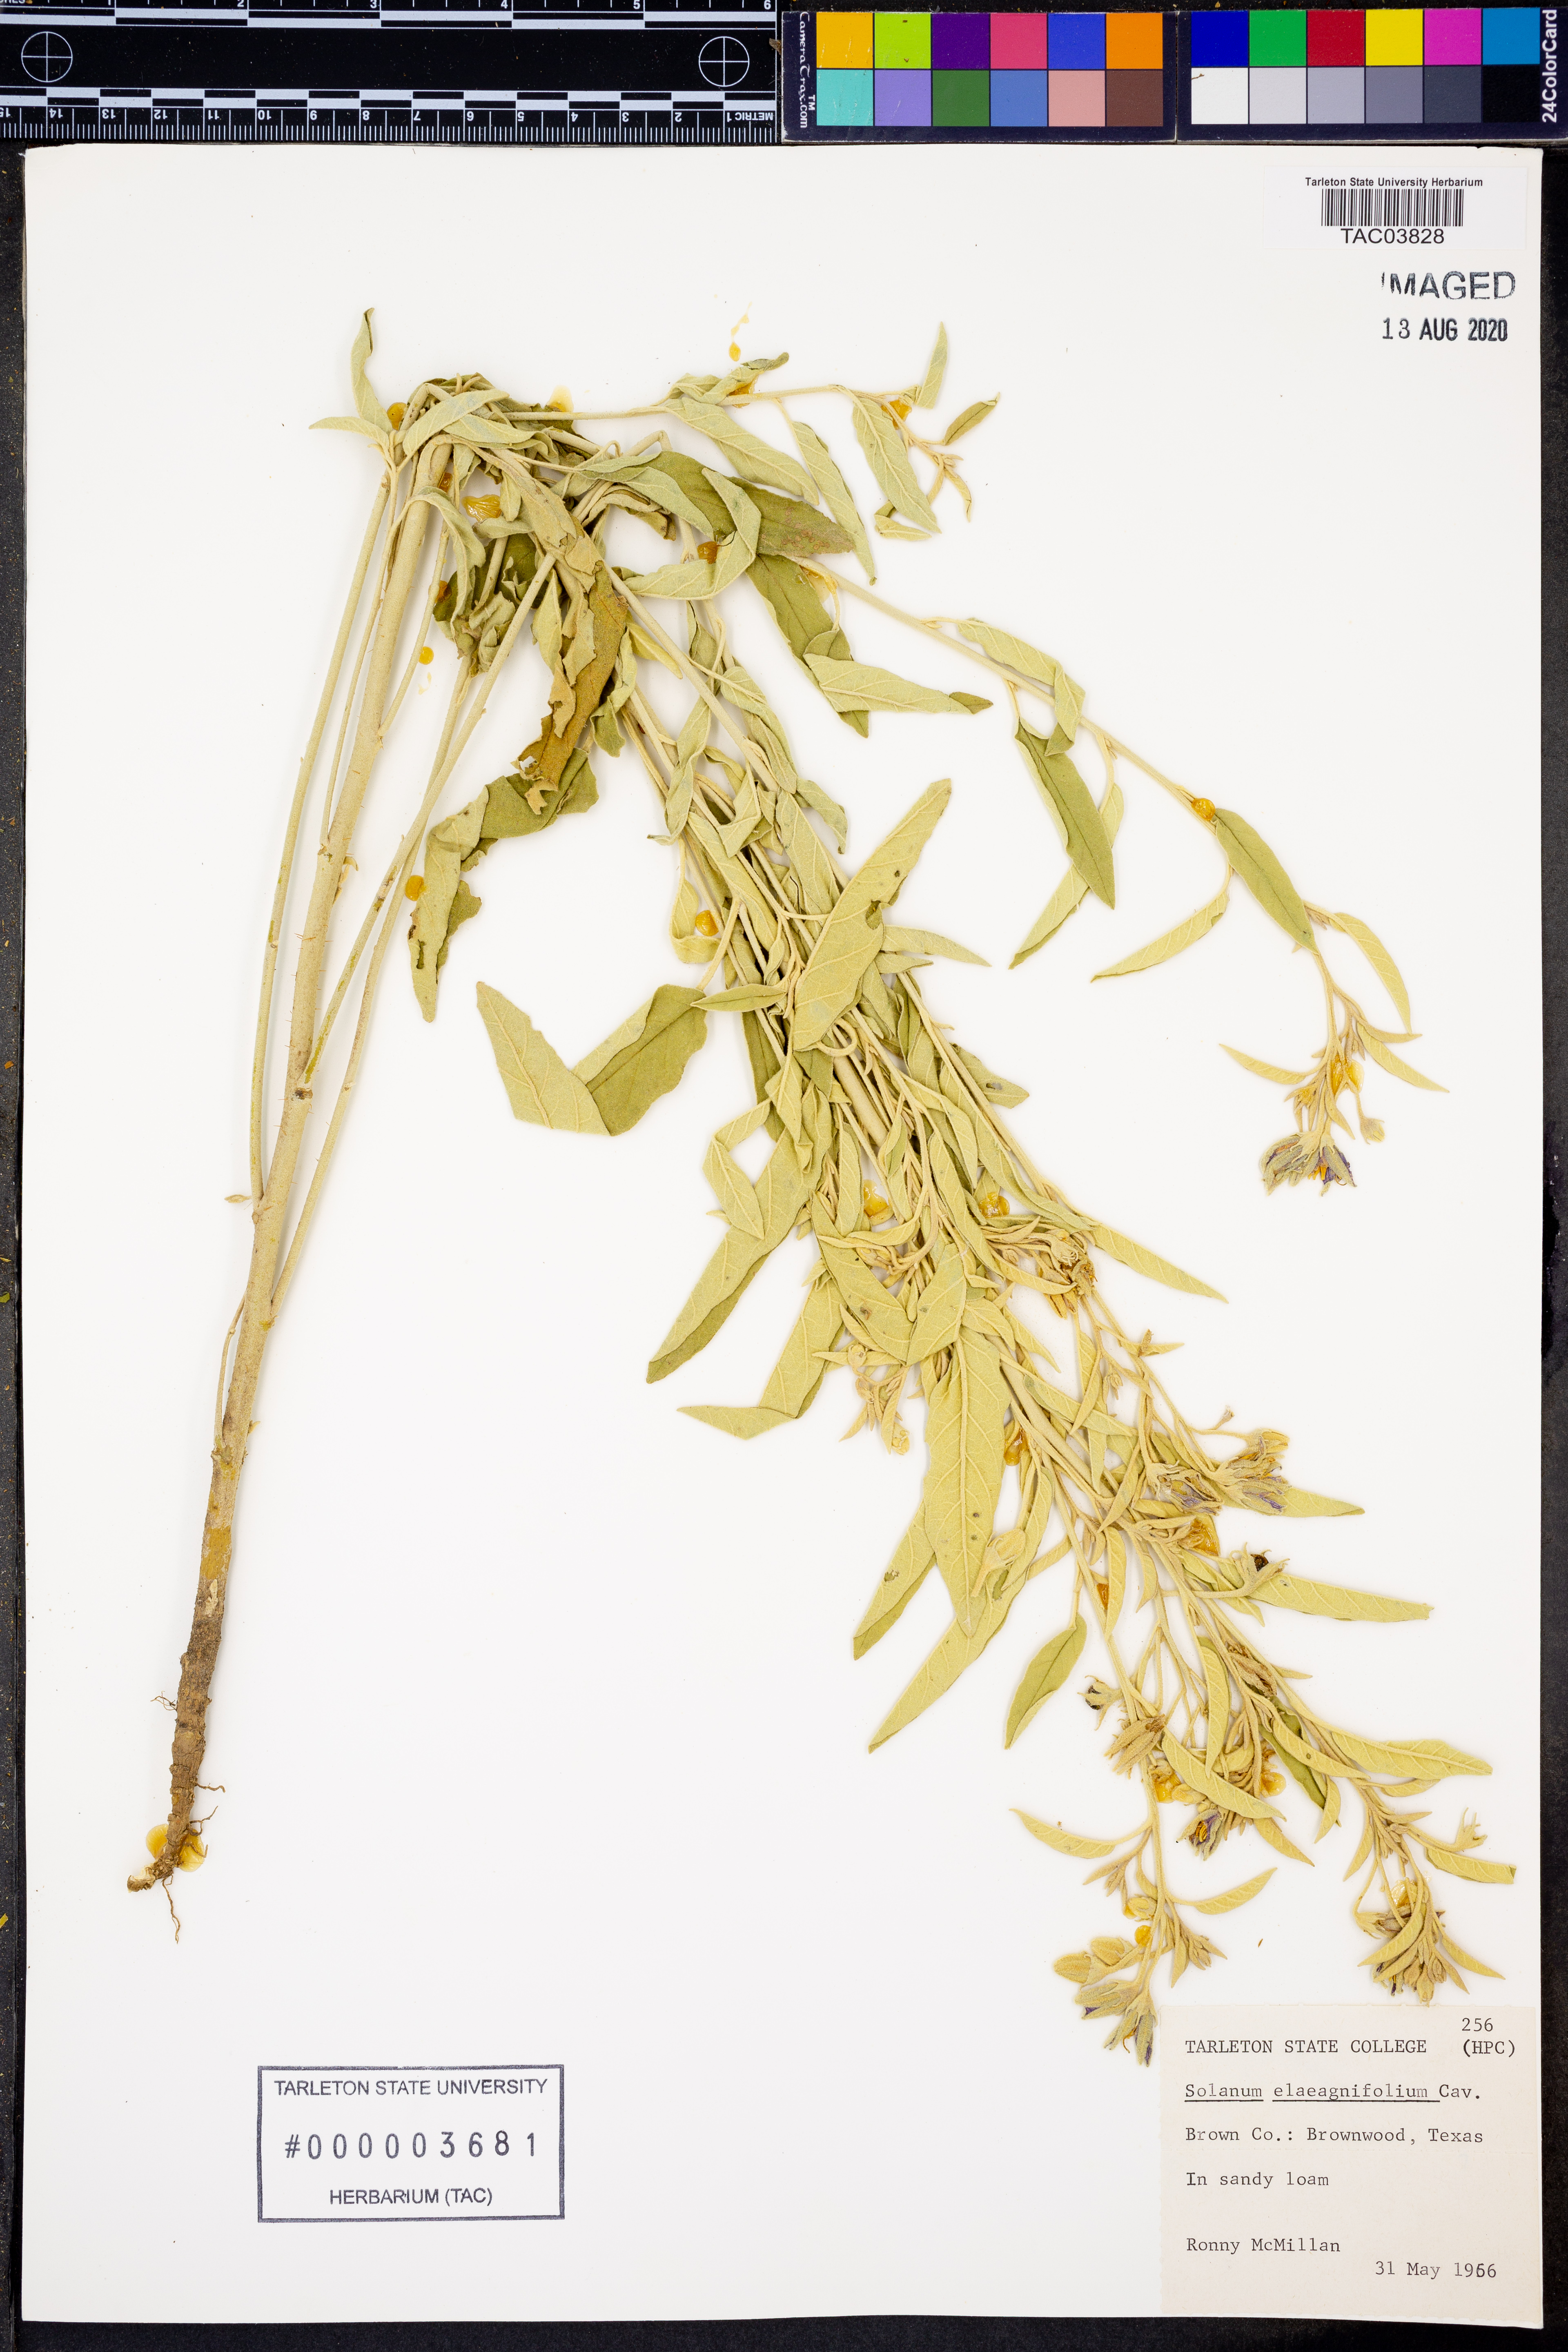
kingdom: Plantae
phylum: Tracheophyta
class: Magnoliopsida
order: Solanales
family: Solanaceae
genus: Solanum
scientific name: Solanum elaeagnifolium
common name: Silverleaf nightshade
